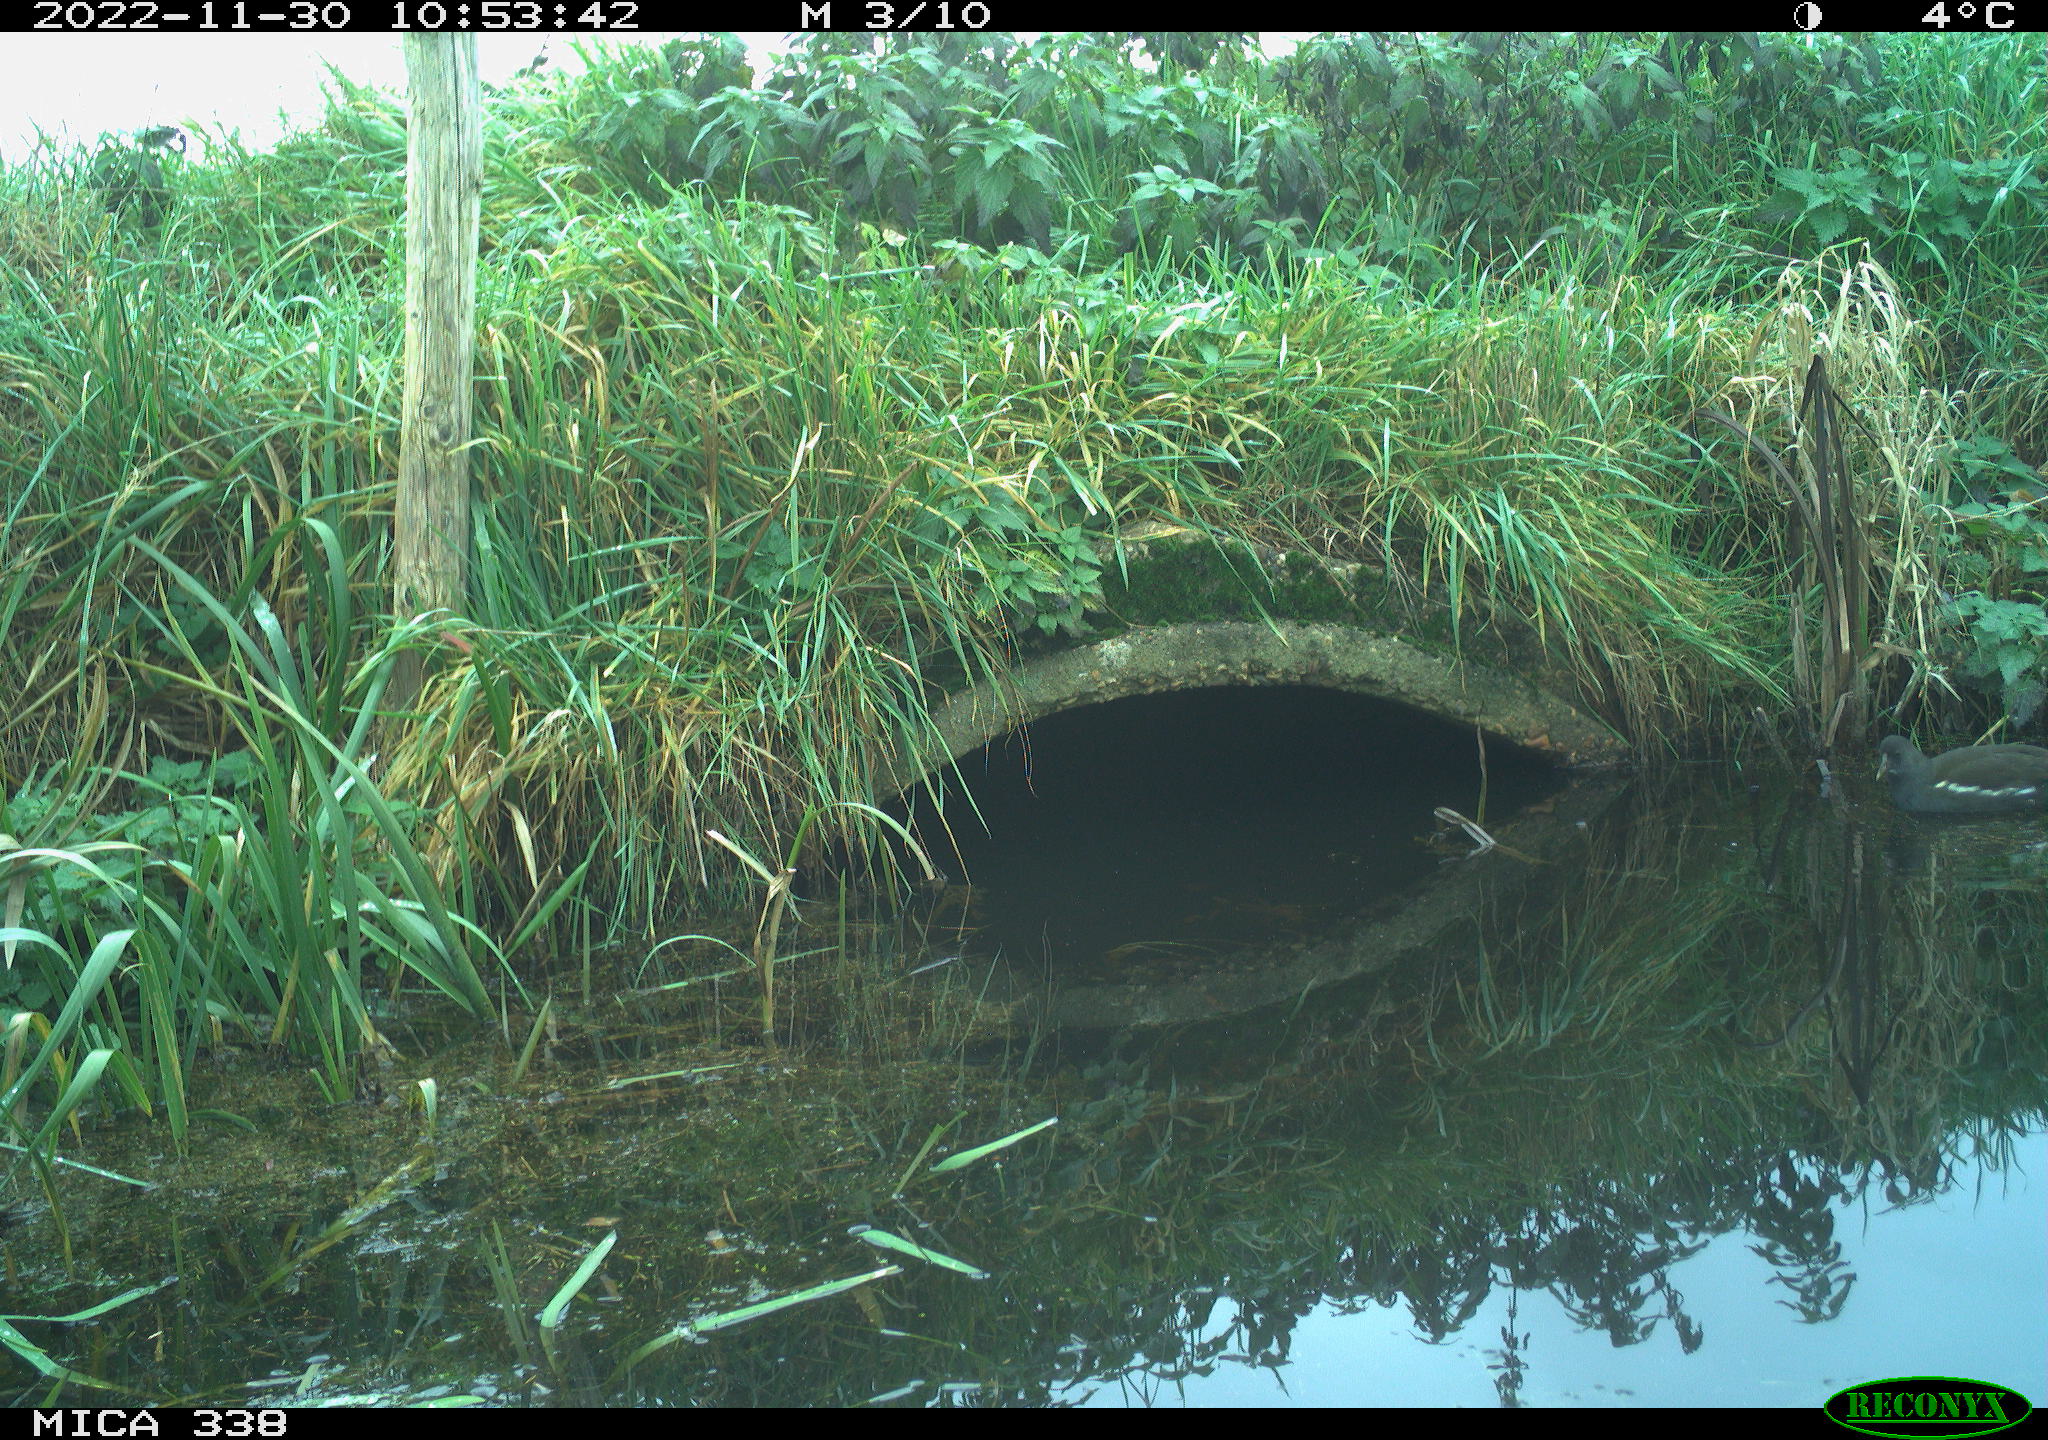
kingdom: Animalia
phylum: Chordata
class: Aves
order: Gruiformes
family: Rallidae
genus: Gallinula
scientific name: Gallinula chloropus
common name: Common moorhen
